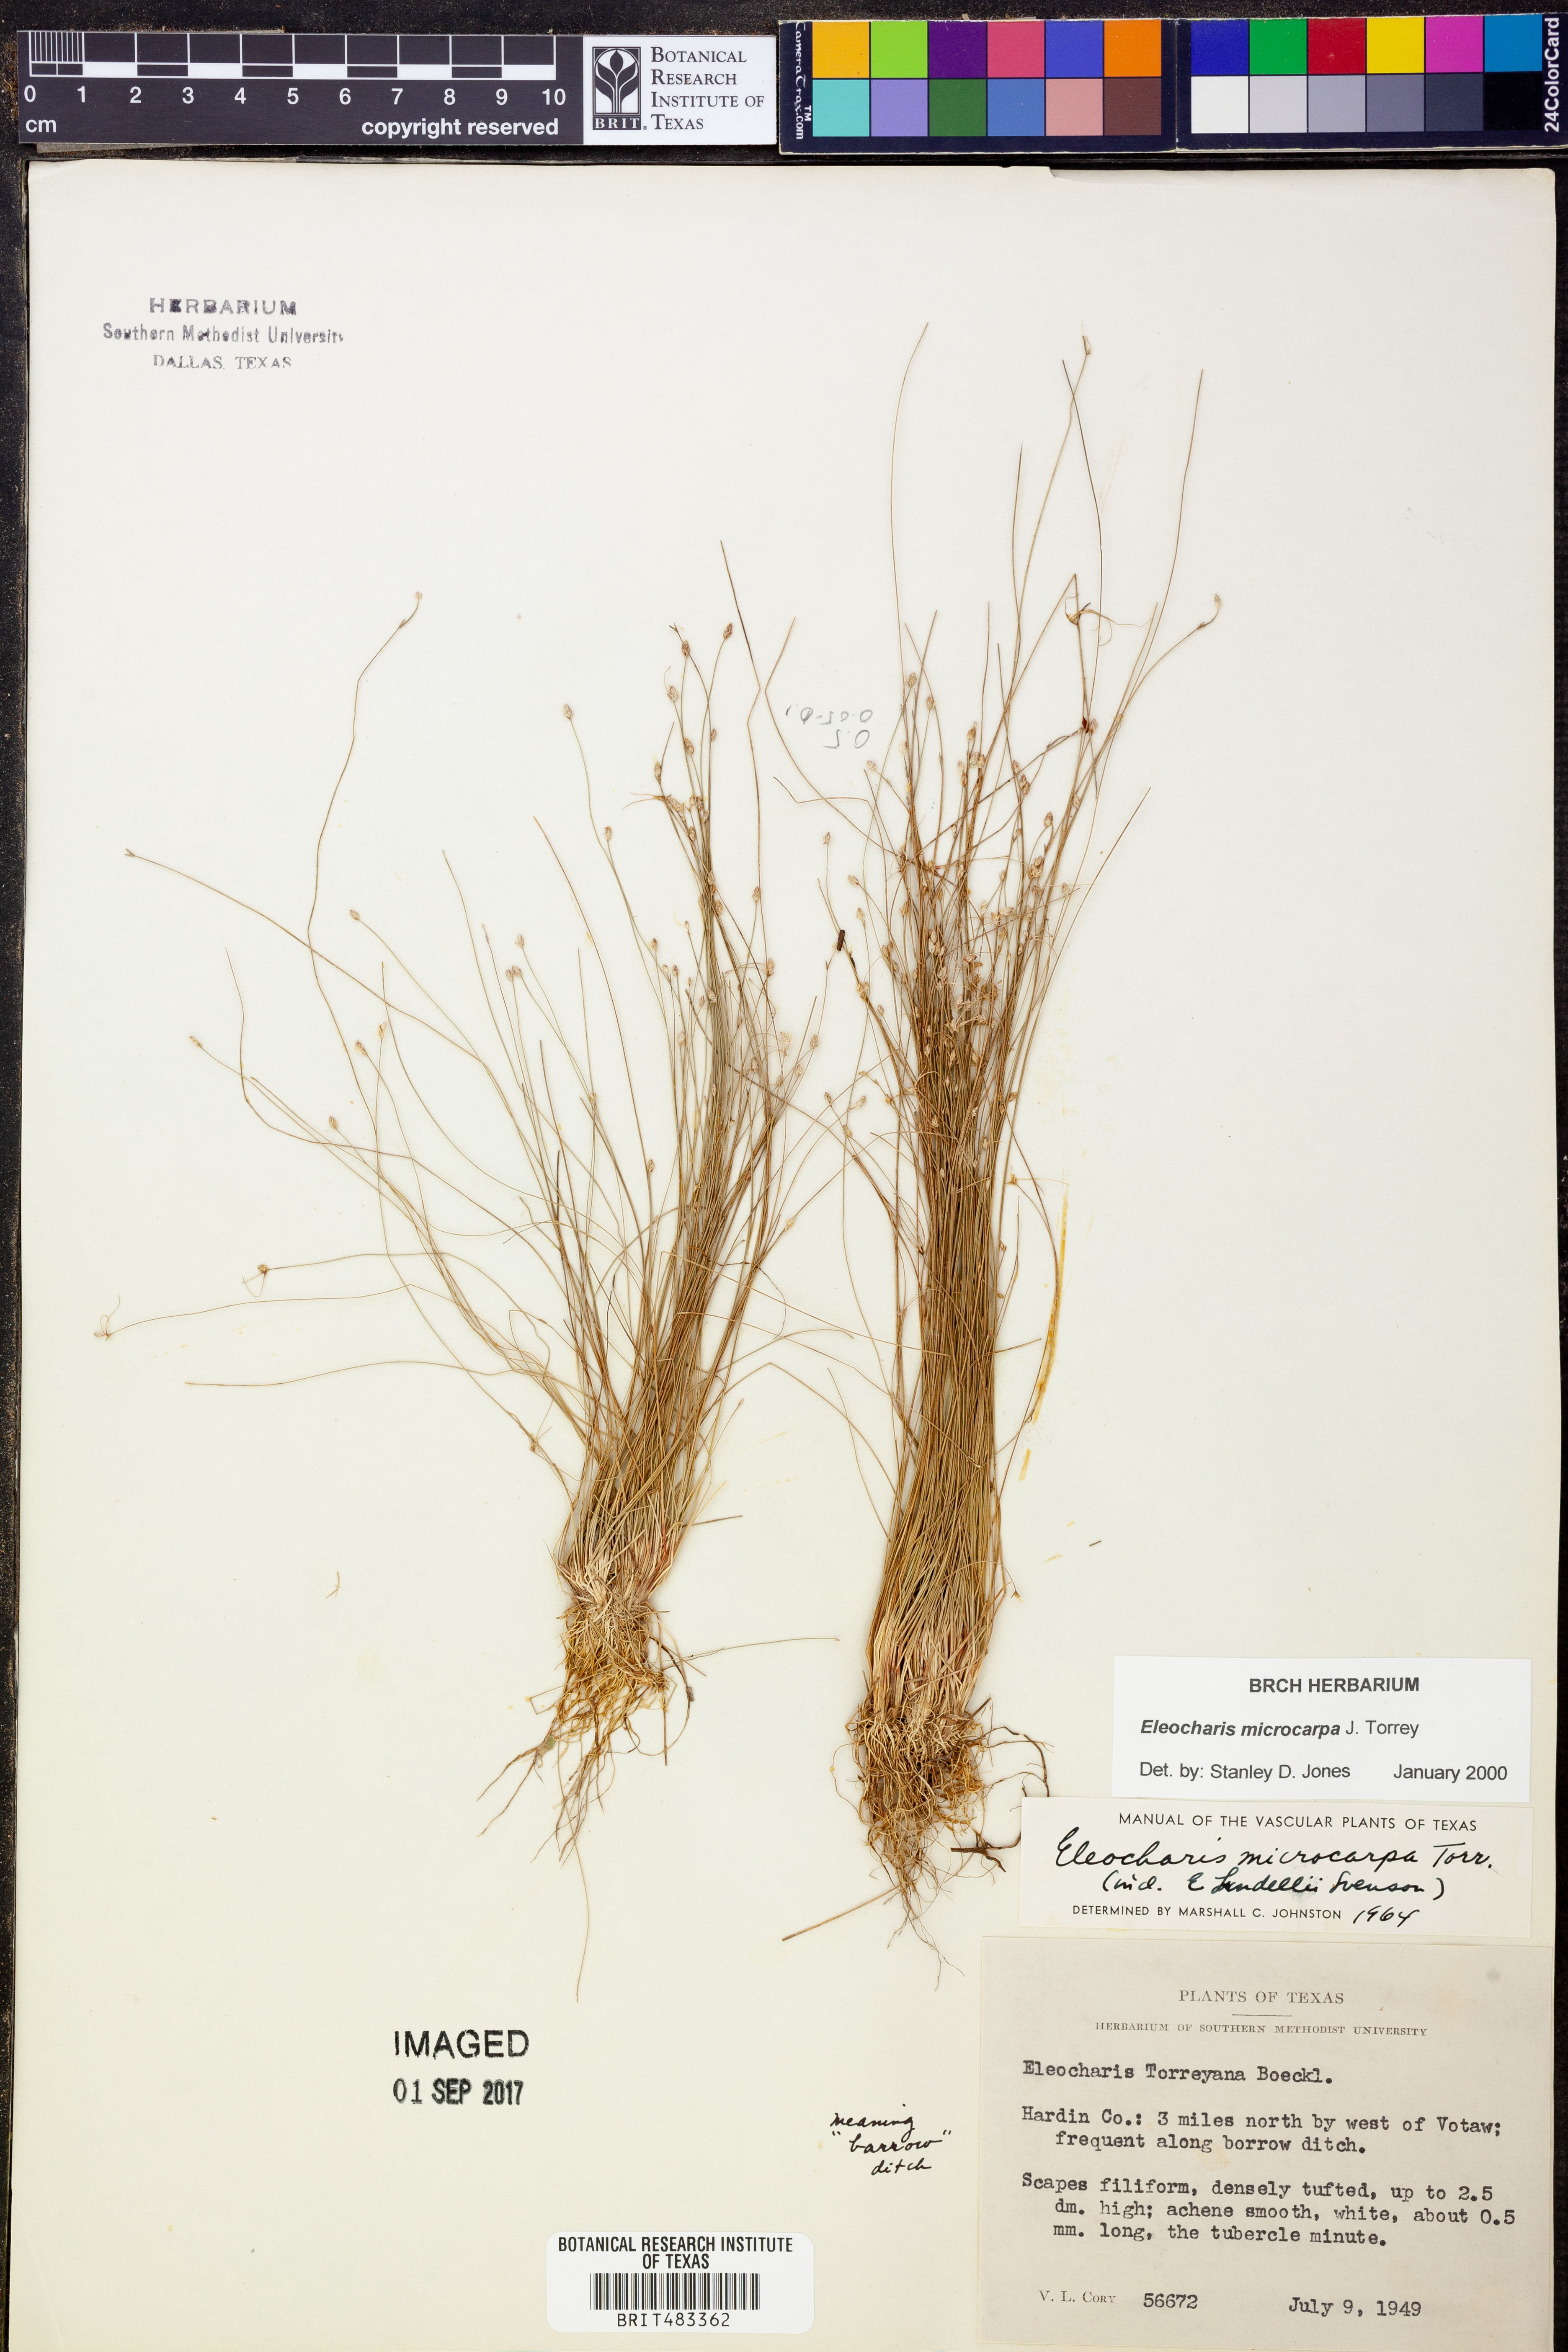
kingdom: Plantae
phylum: Tracheophyta
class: Liliopsida
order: Poales
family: Cyperaceae
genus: Eleocharis
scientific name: Eleocharis microcarpa
